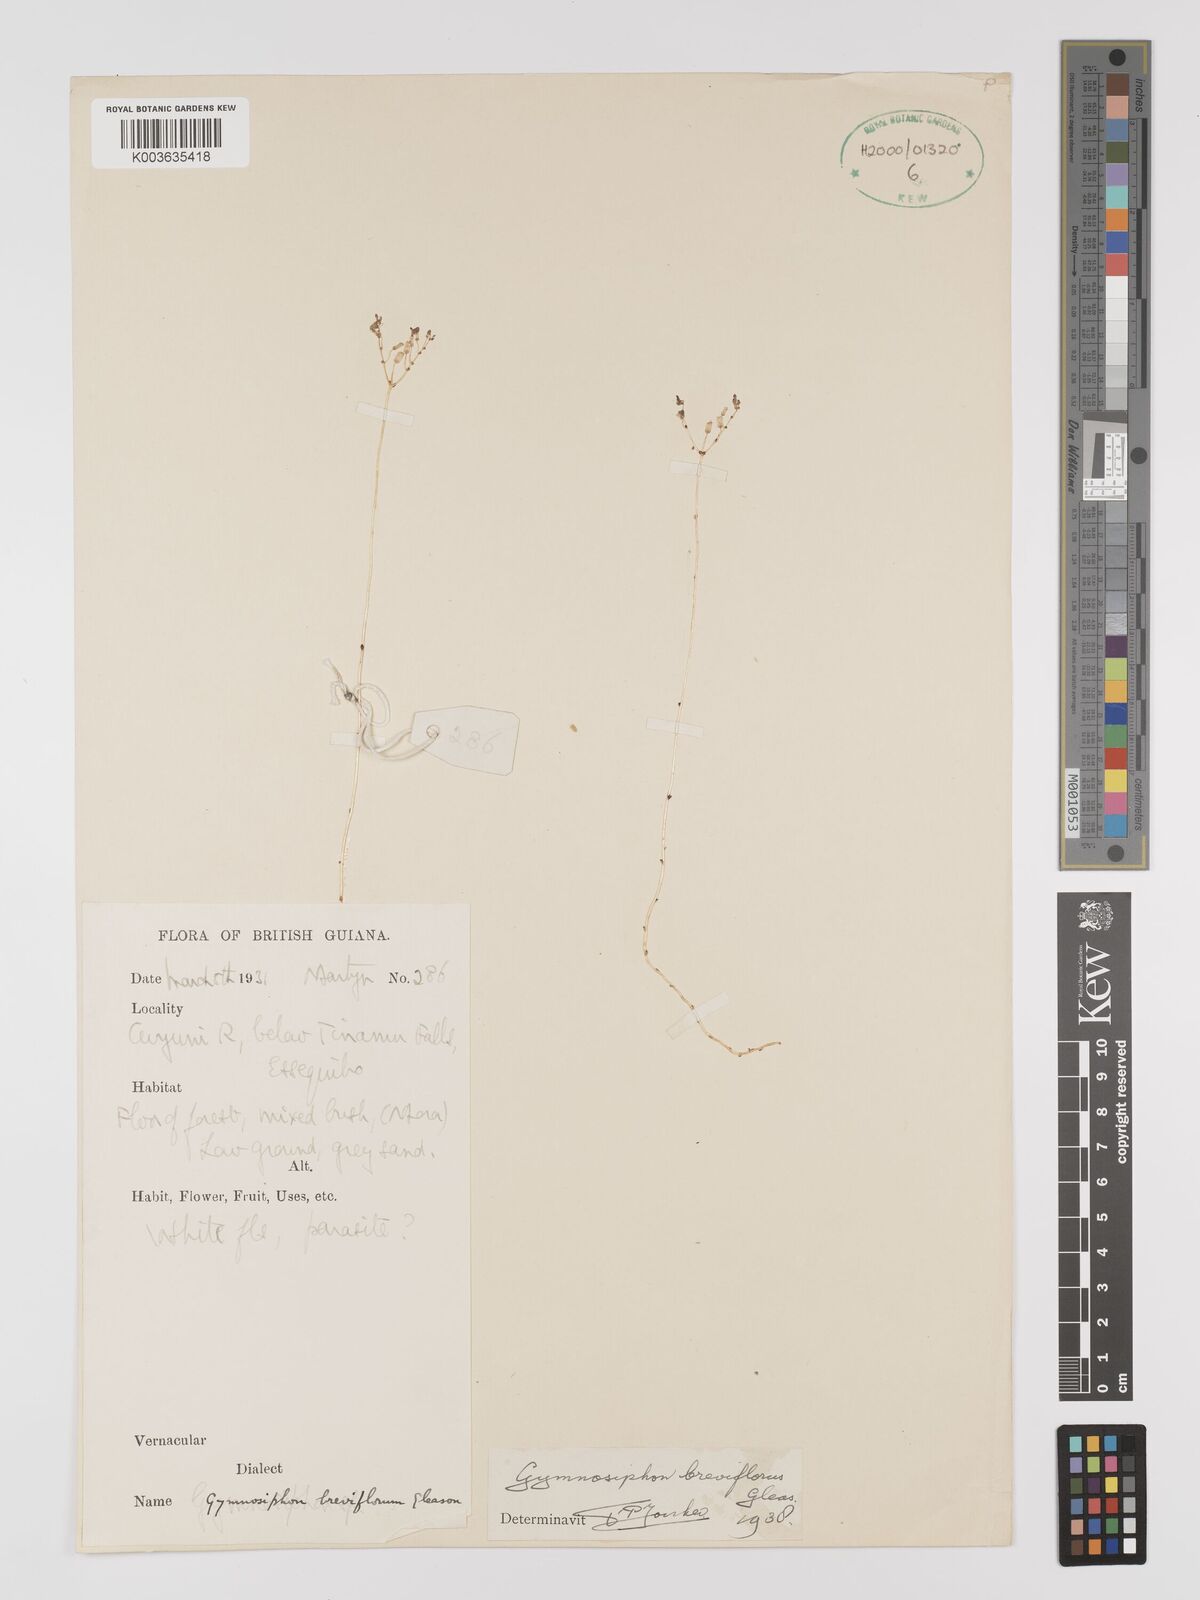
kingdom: Plantae
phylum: Tracheophyta
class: Liliopsida
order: Dioscoreales
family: Burmanniaceae
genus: Gymnosiphon
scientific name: Gymnosiphon breviflorus
